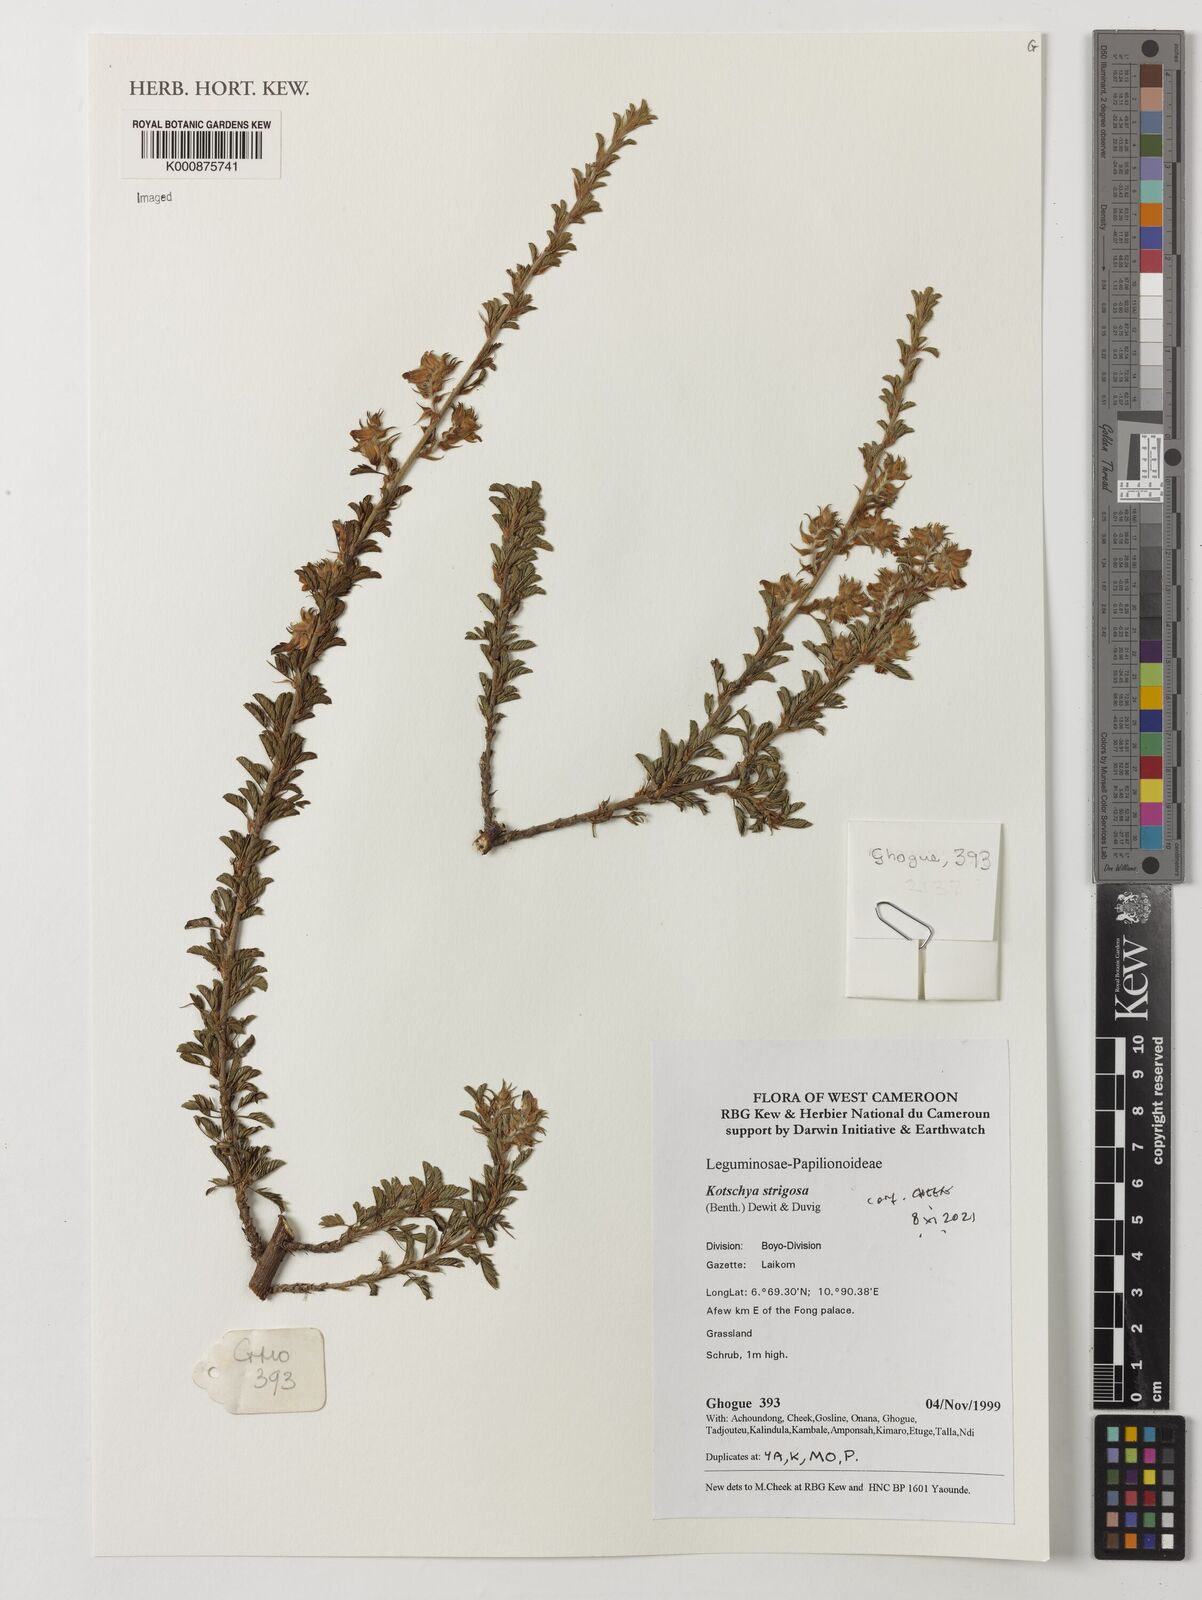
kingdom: Plantae
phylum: Tracheophyta
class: Magnoliopsida
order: Fabales
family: Fabaceae
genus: Kotschya
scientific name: Kotschya strigosa
